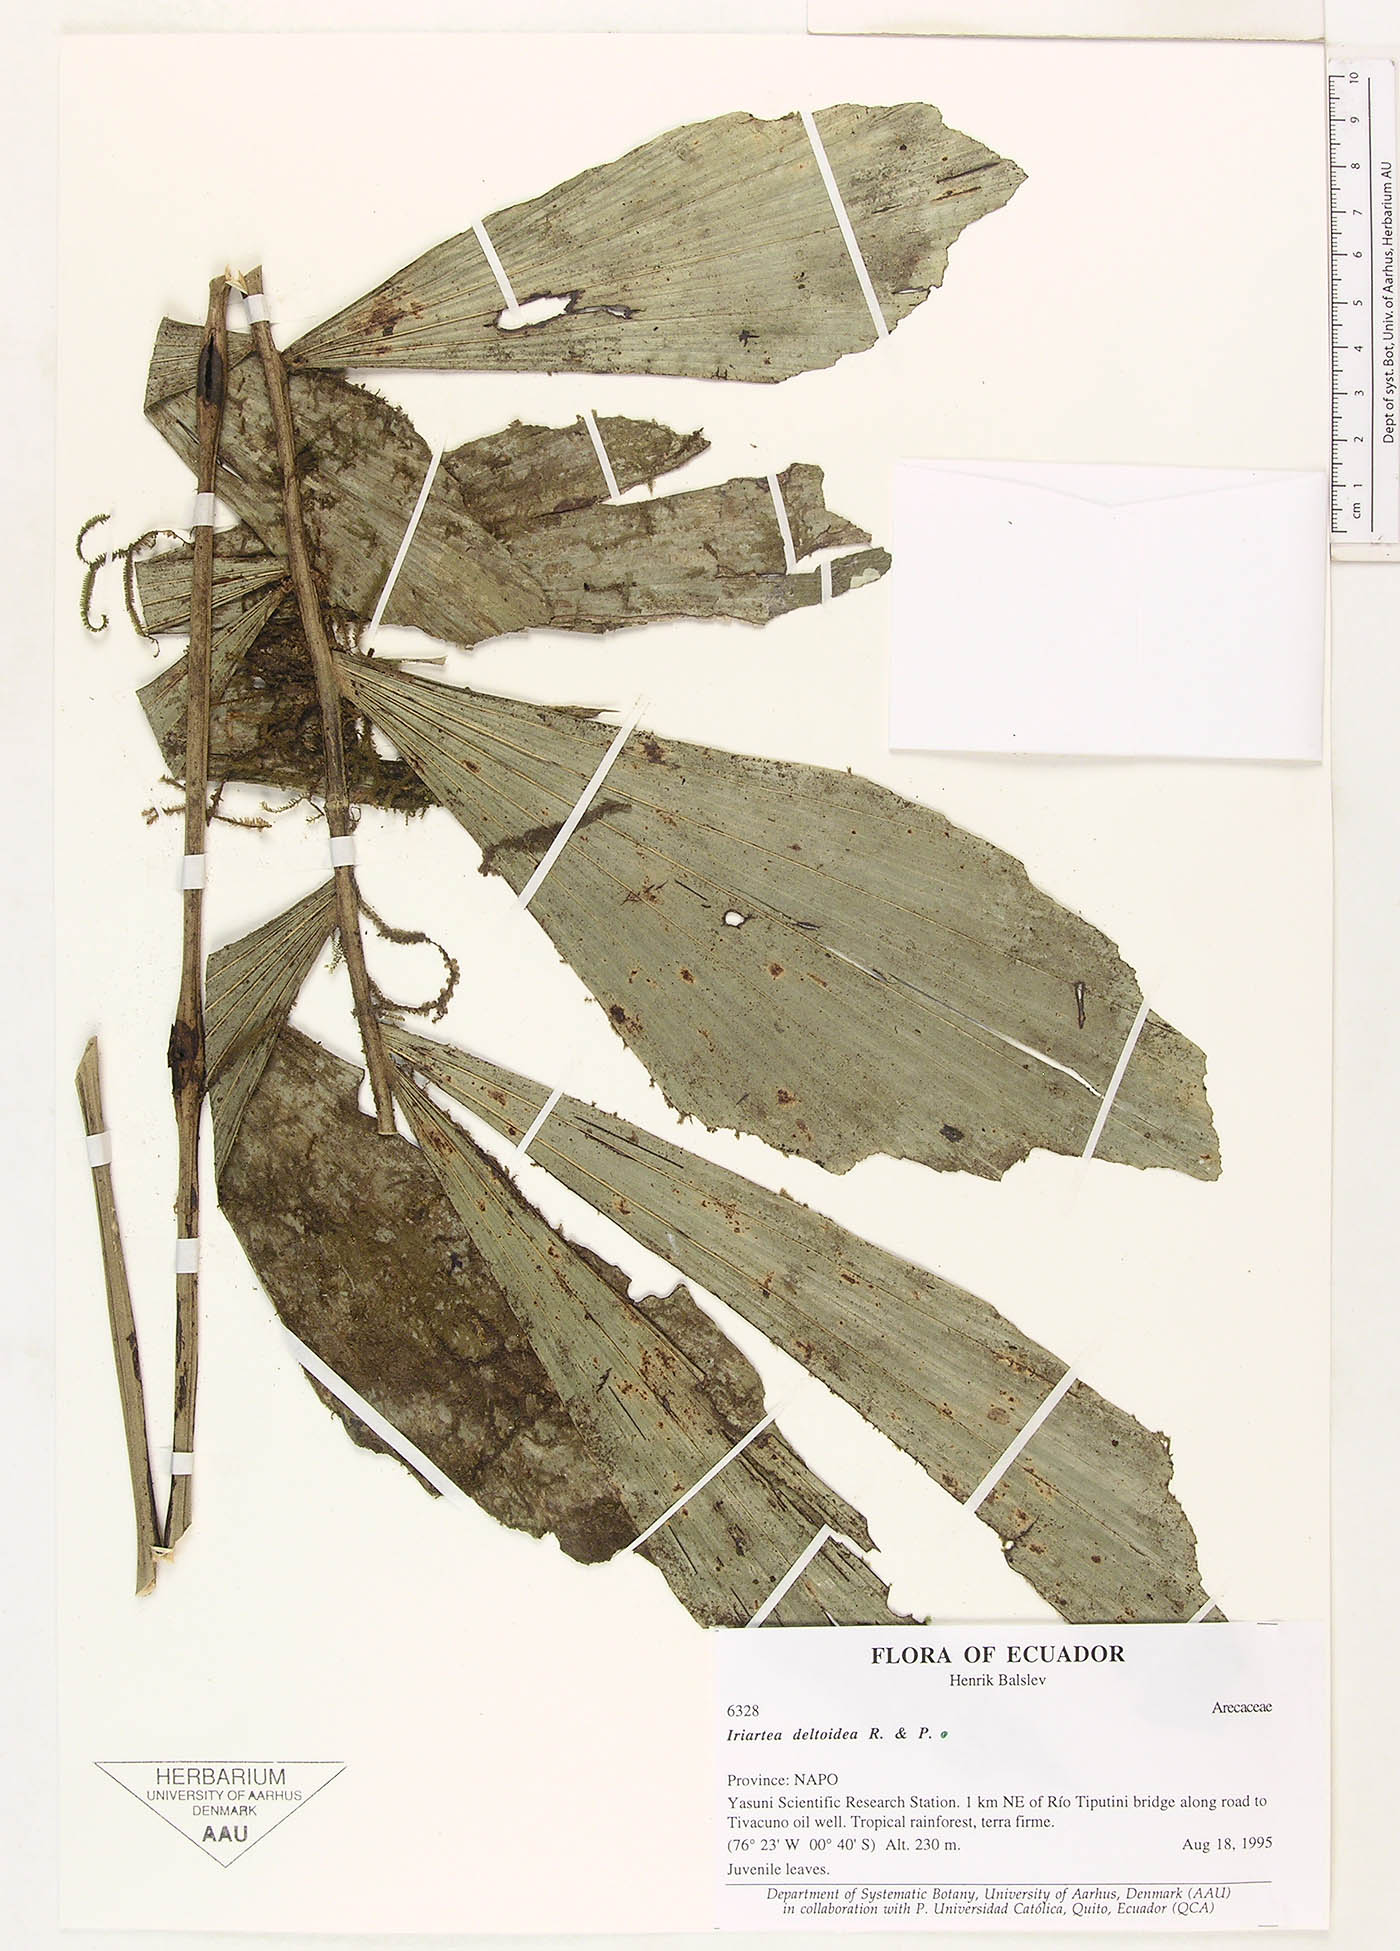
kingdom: Plantae
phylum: Tracheophyta
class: Liliopsida
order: Arecales
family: Arecaceae
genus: Iriartea
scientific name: Iriartea deltoidea
